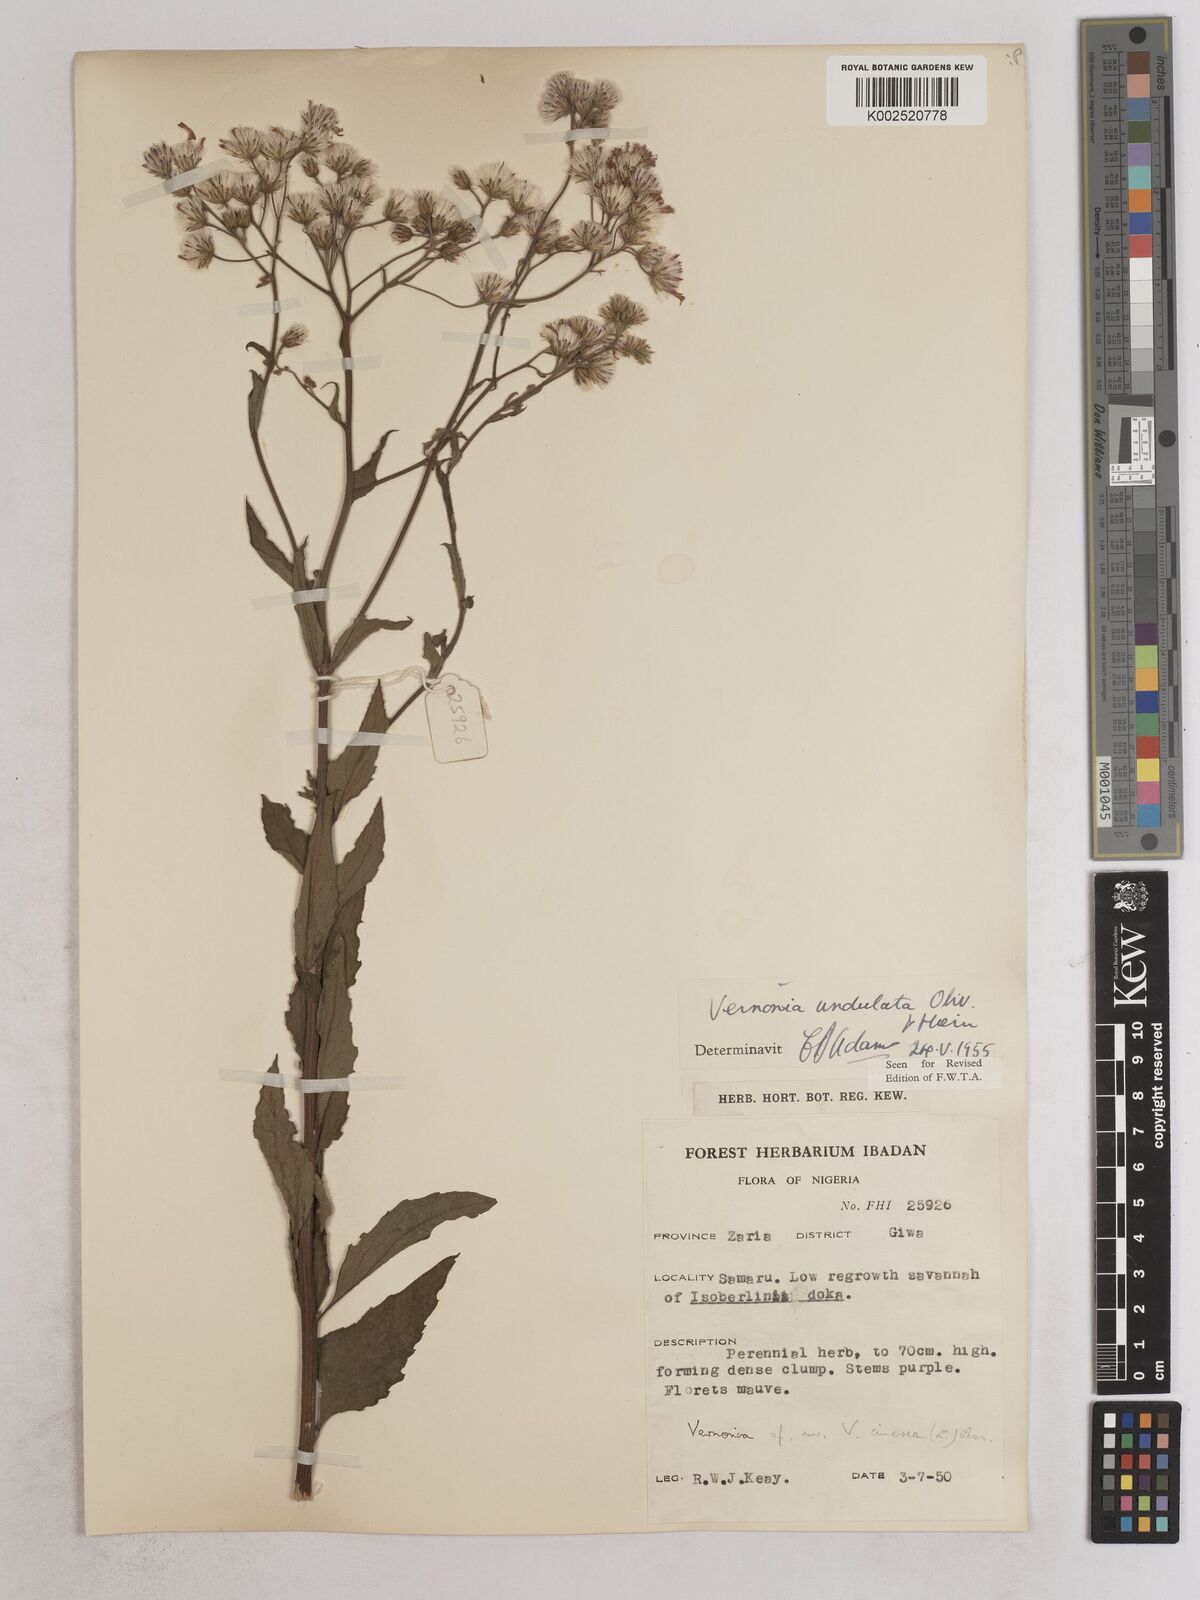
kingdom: Plantae
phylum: Tracheophyta
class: Magnoliopsida
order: Asterales
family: Asteraceae
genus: Vernonia
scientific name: Vernonia golungensis
